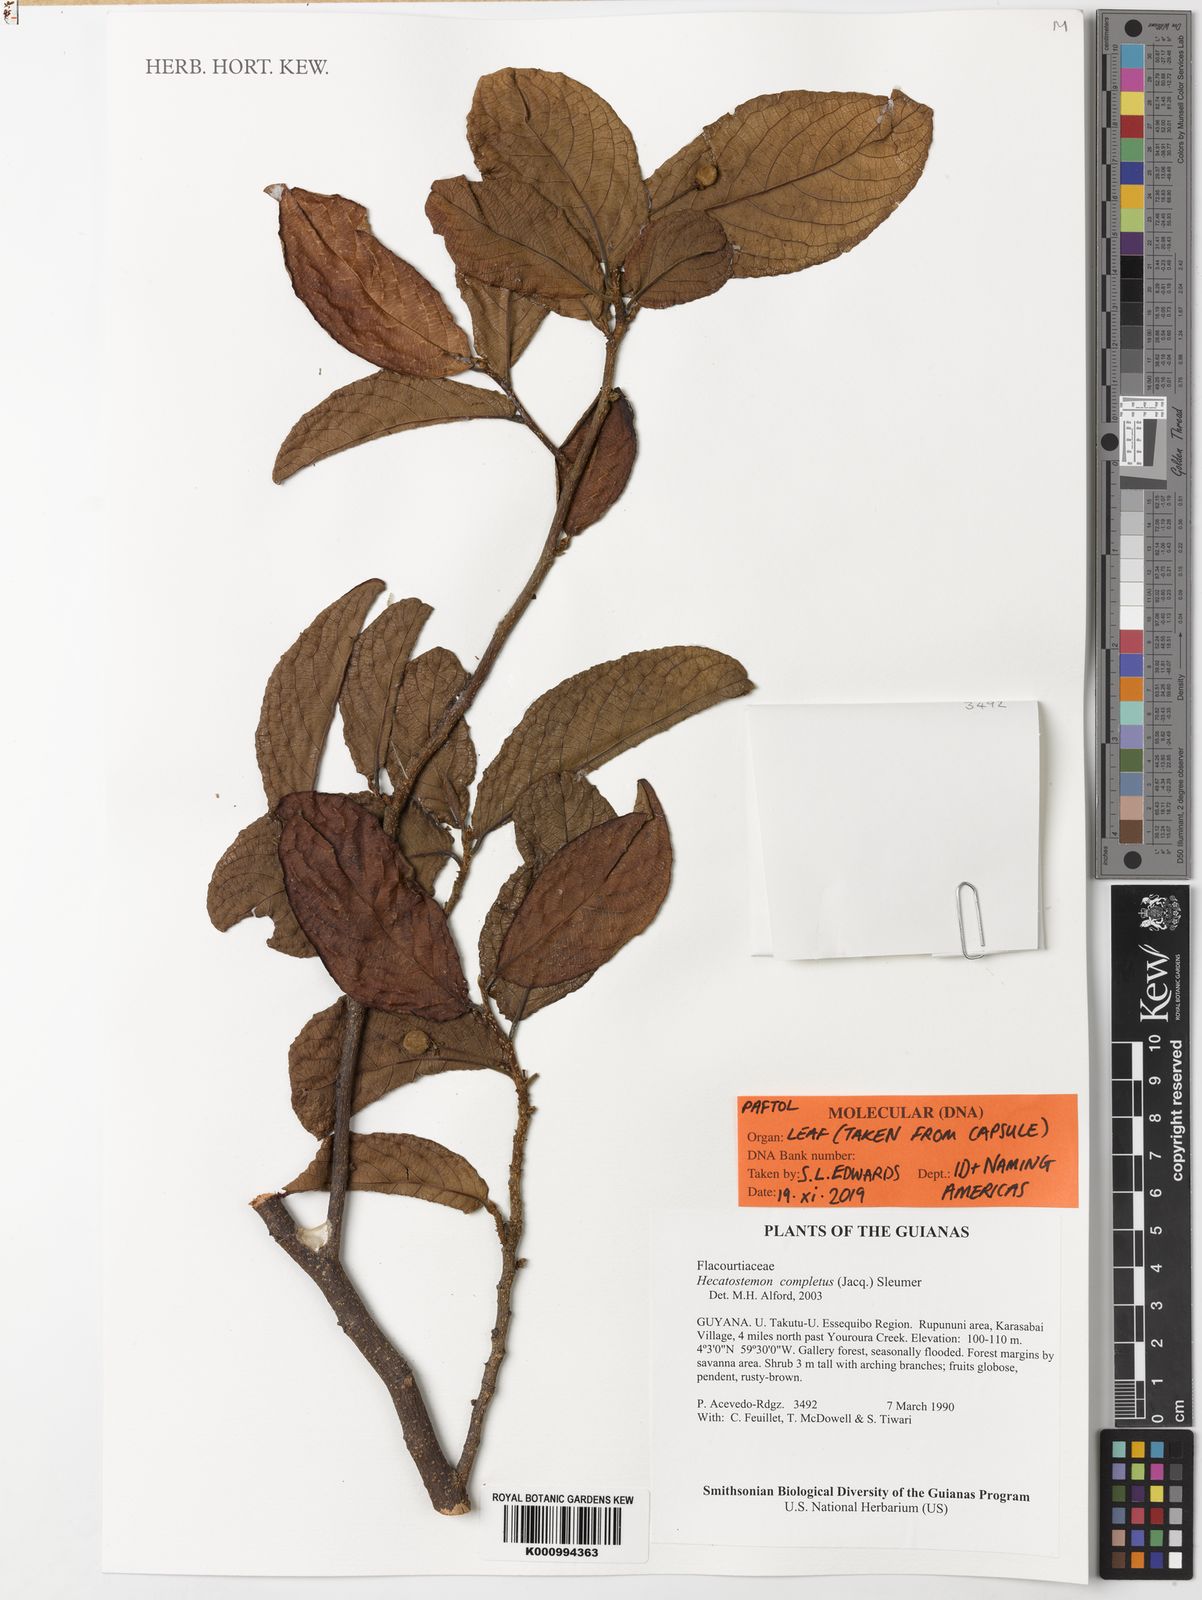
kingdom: Plantae
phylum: Tracheophyta
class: Magnoliopsida
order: Malpighiales
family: Salicaceae
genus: Casearia
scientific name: Casearia completa
